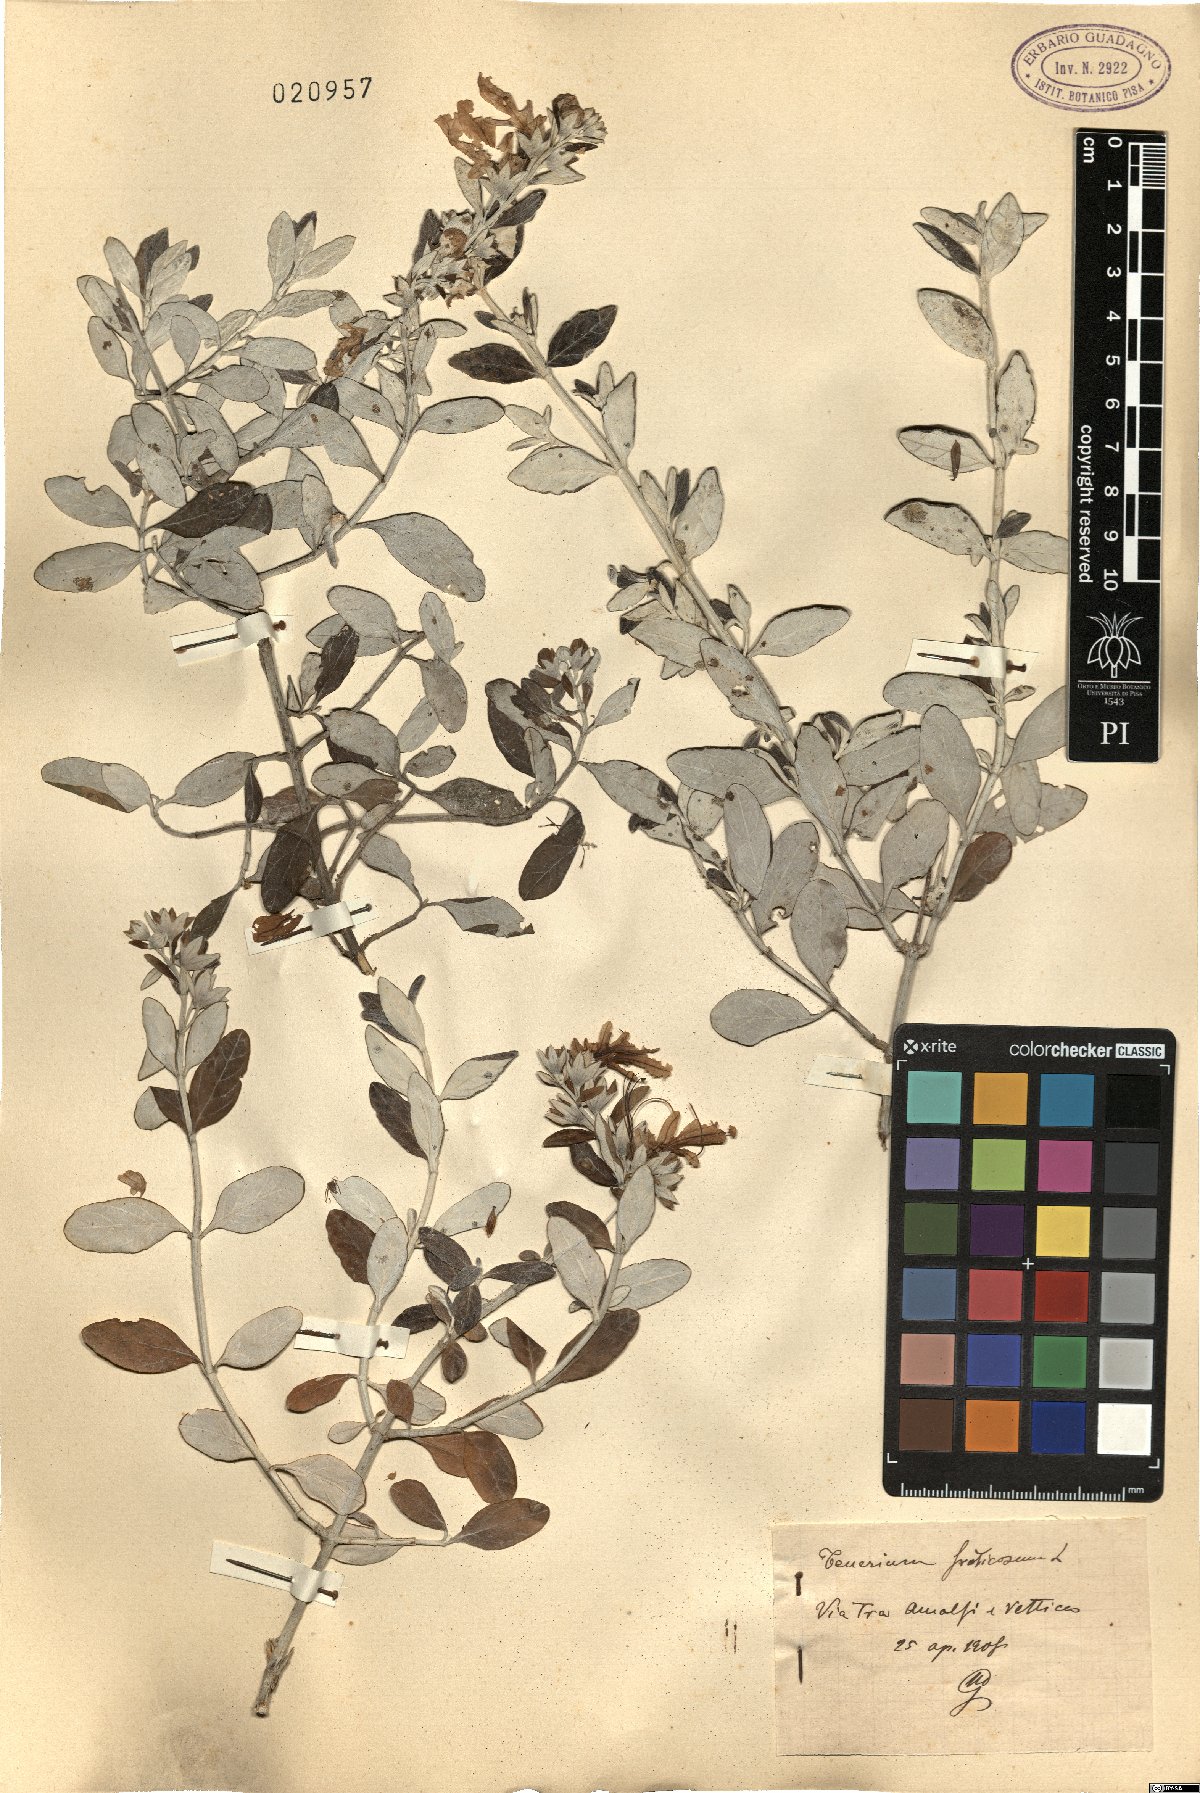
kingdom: Plantae
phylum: Tracheophyta
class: Magnoliopsida
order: Lamiales
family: Lamiaceae
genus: Teucrium
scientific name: Teucrium fruticans
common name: Shrubby germander
